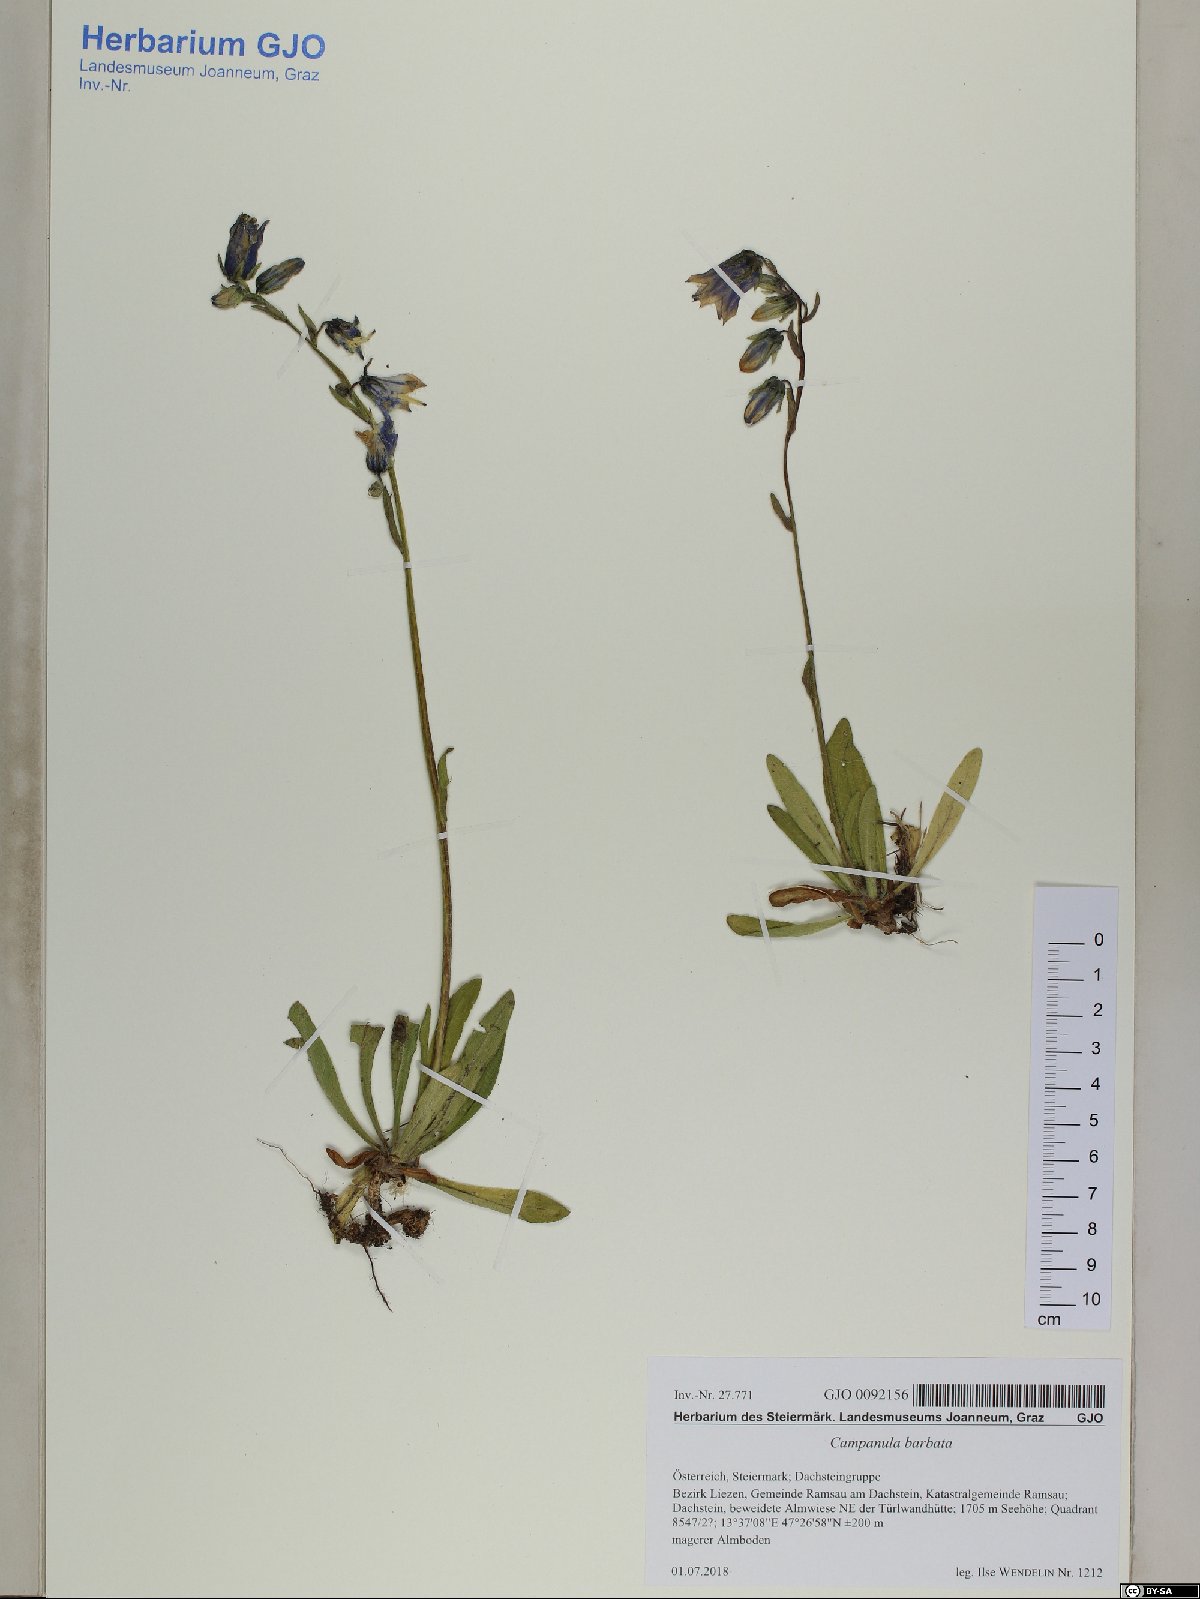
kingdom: Plantae
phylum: Tracheophyta
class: Magnoliopsida
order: Asterales
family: Campanulaceae
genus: Campanula
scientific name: Campanula barbata
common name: Bearded bellflower
